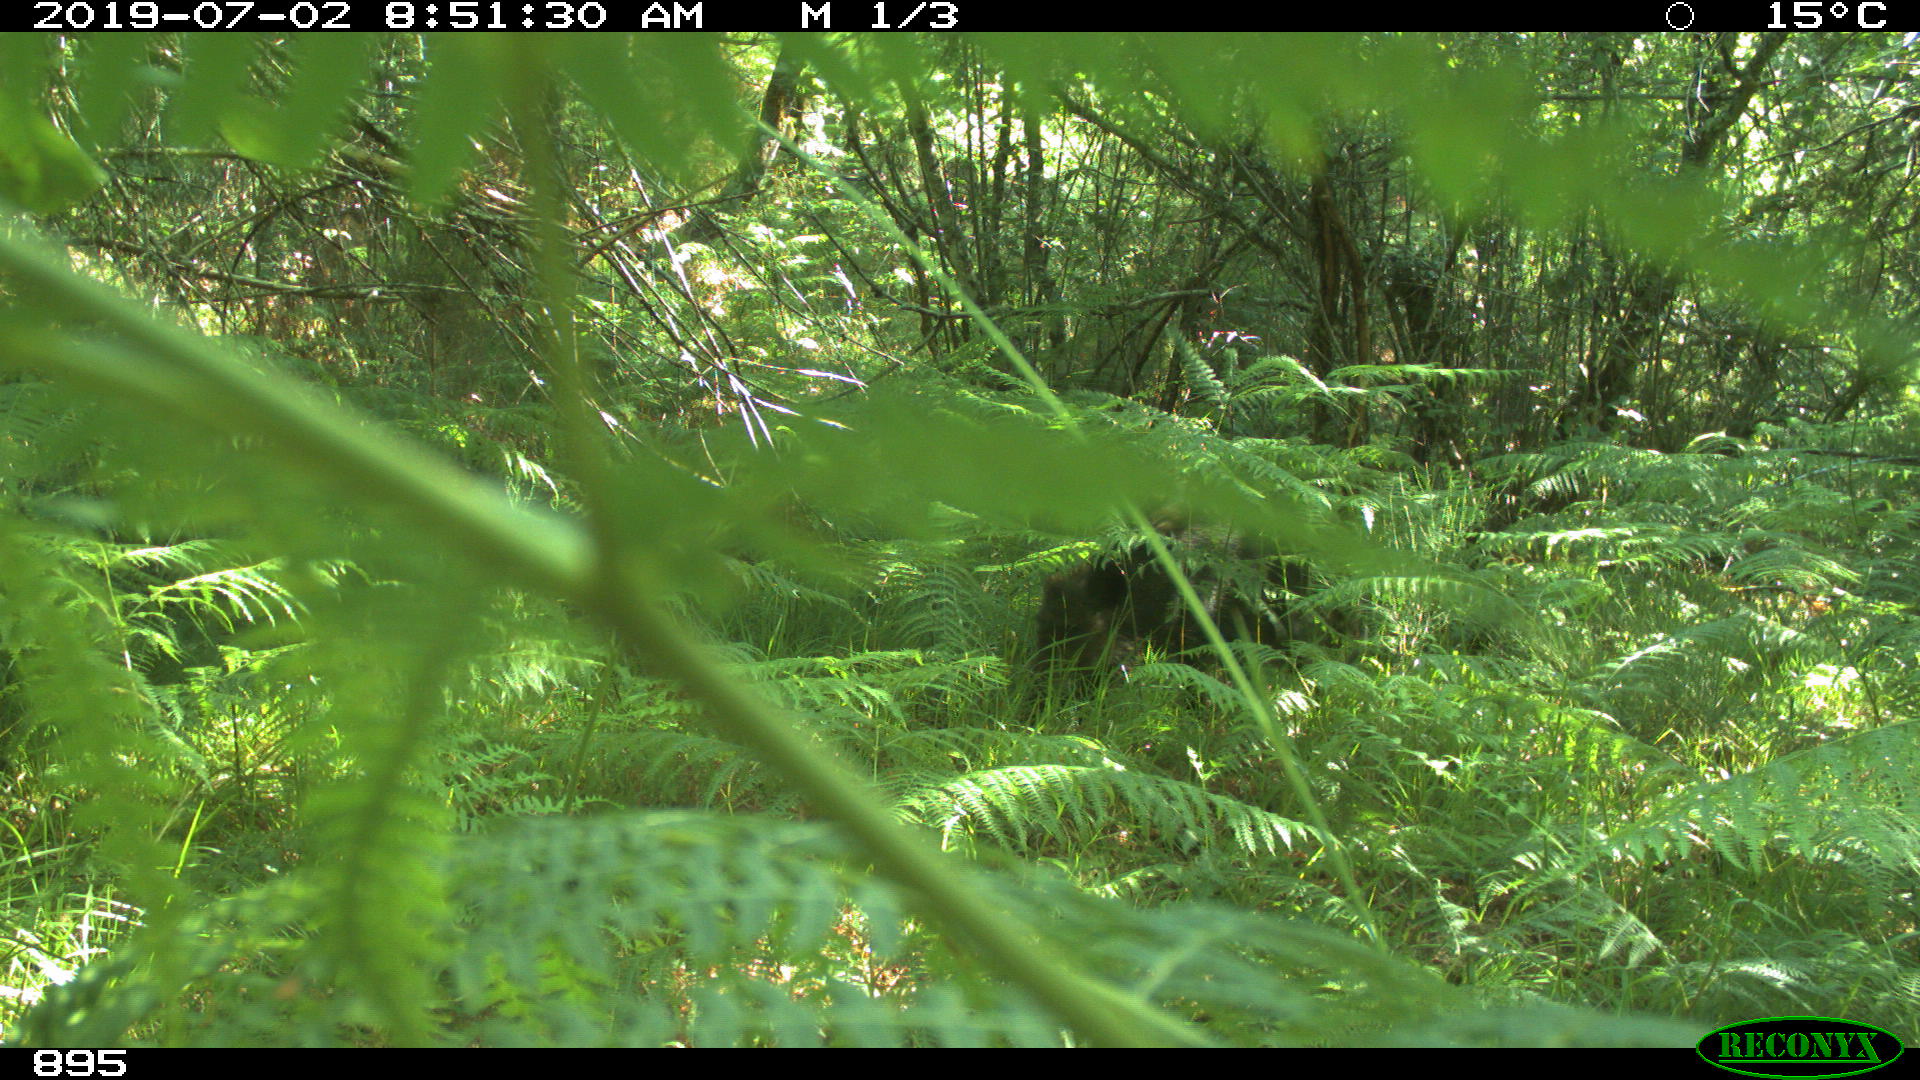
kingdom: Animalia
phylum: Chordata
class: Mammalia
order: Artiodactyla
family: Suidae
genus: Sus
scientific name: Sus scrofa
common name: Wild boar
